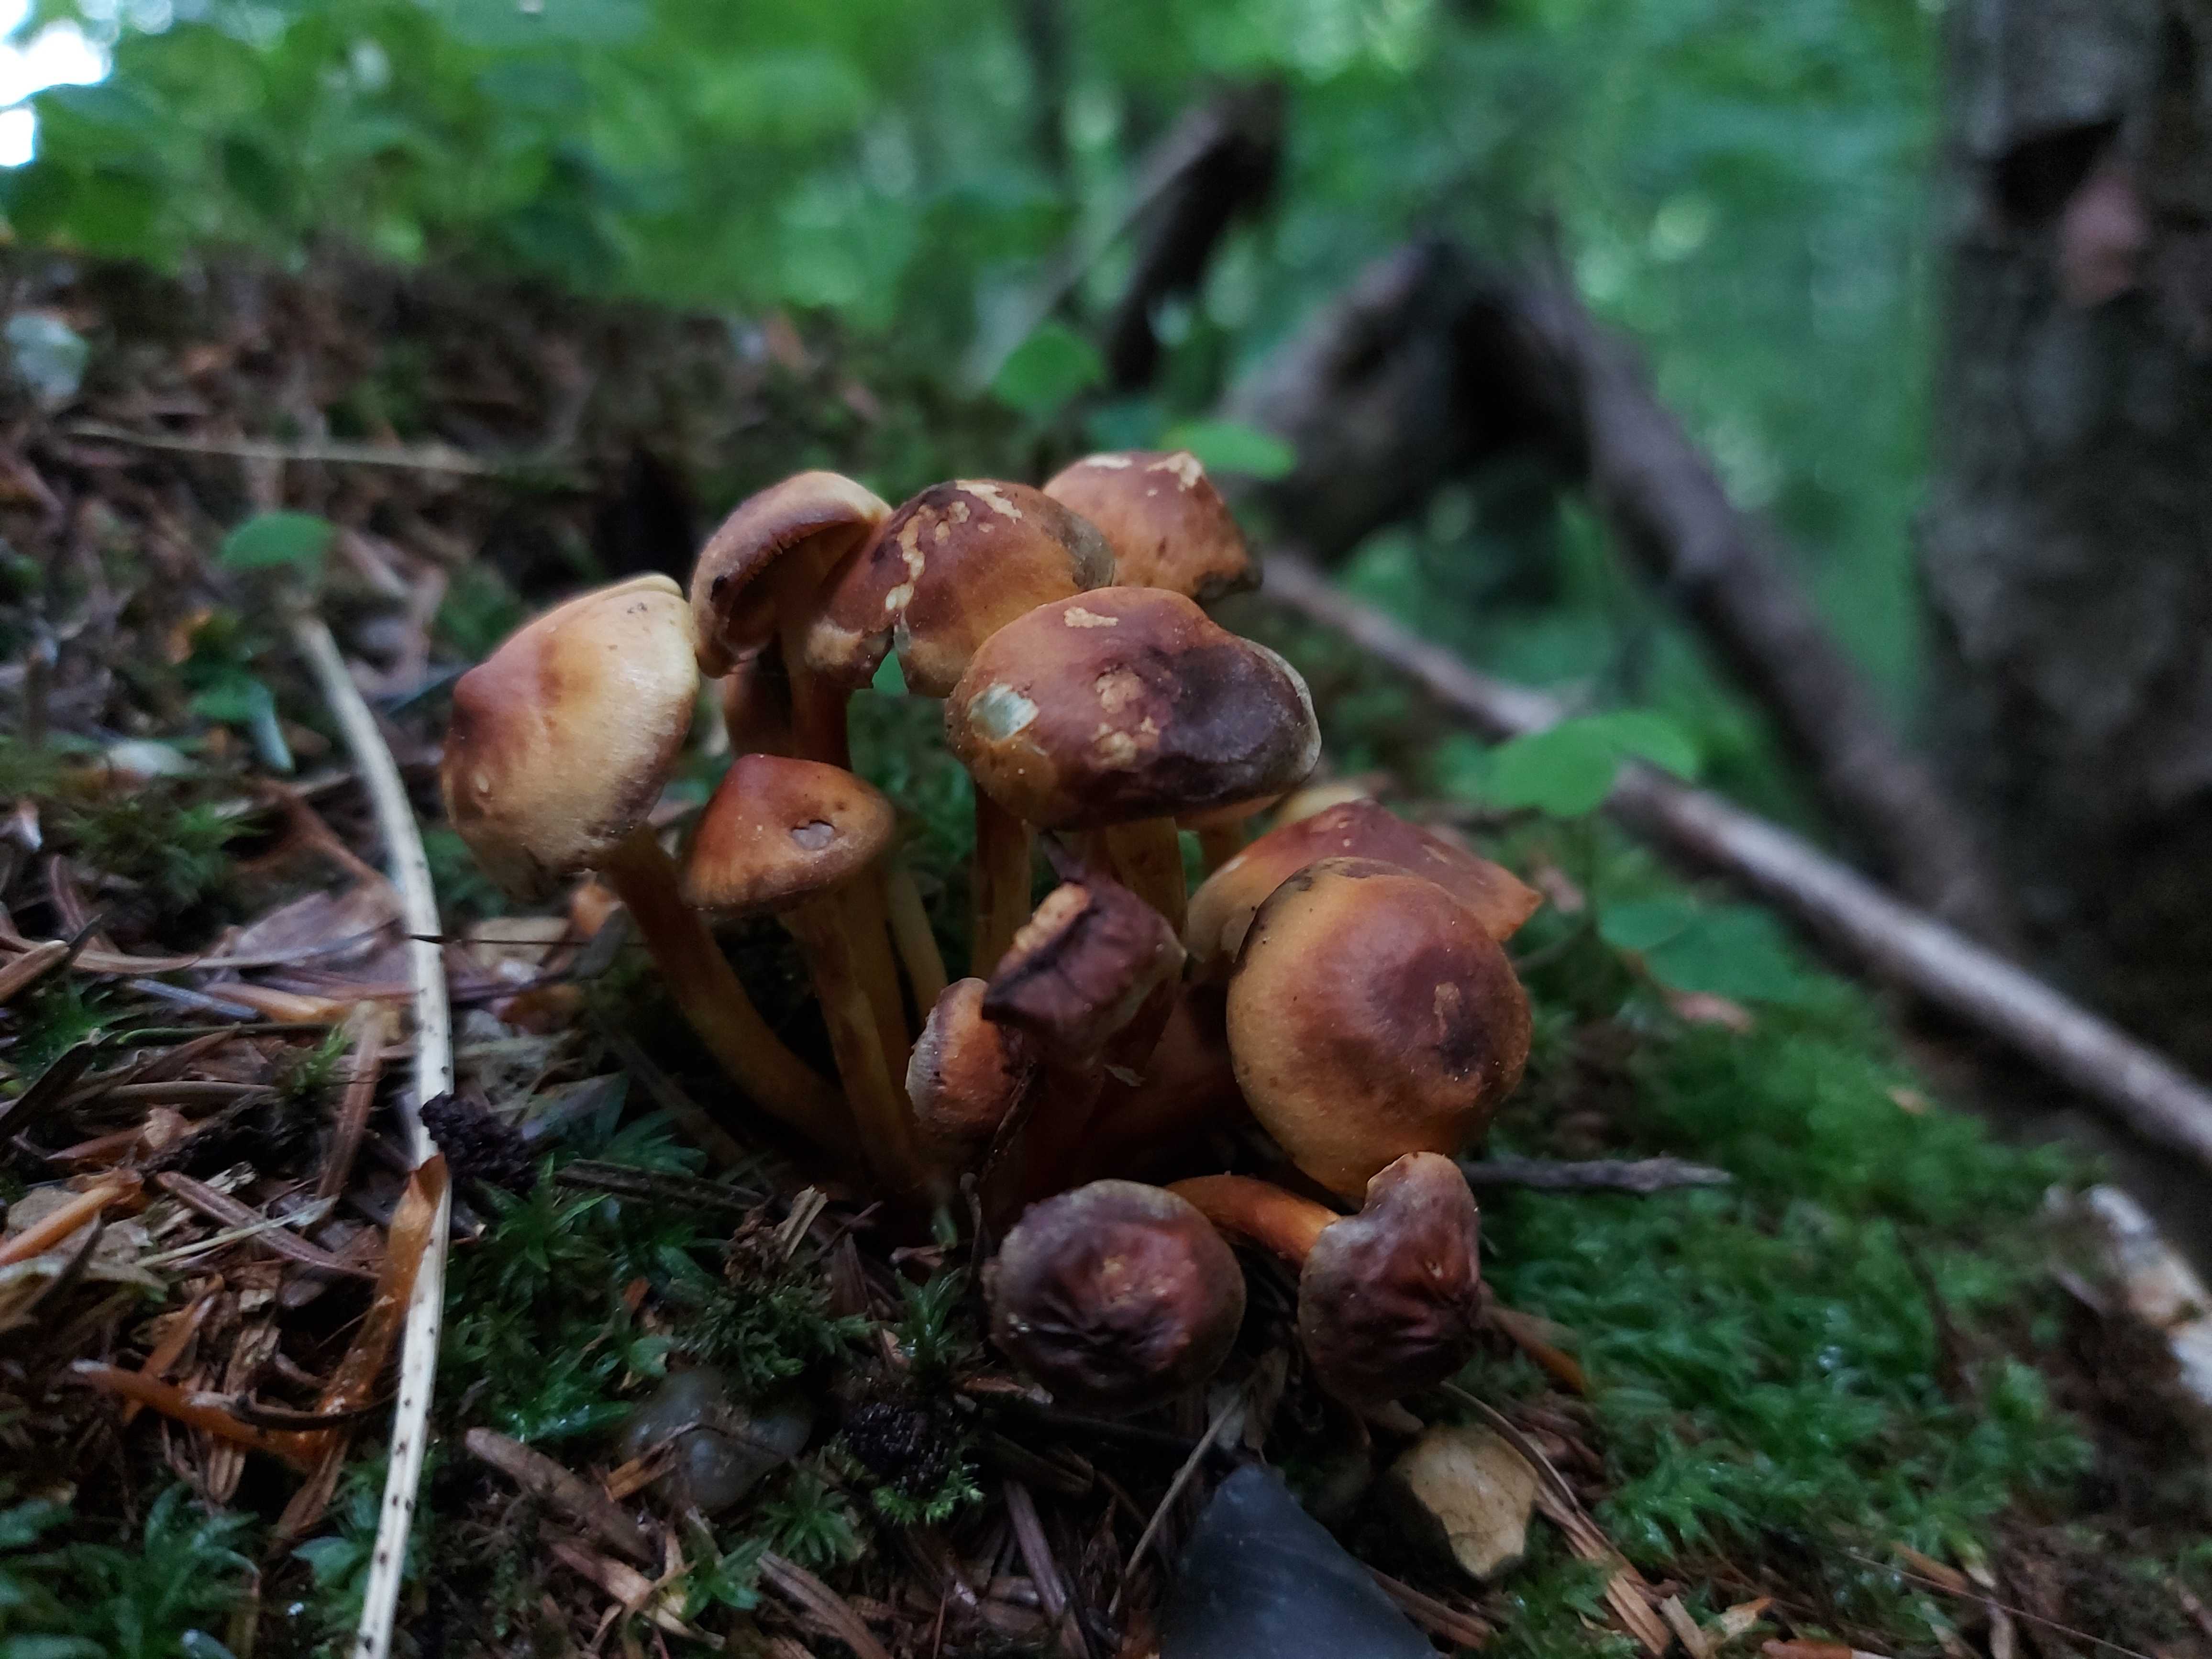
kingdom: Fungi
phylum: Basidiomycota
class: Agaricomycetes
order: Agaricales
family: Strophariaceae
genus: Hypholoma
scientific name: Hypholoma fasciculare
